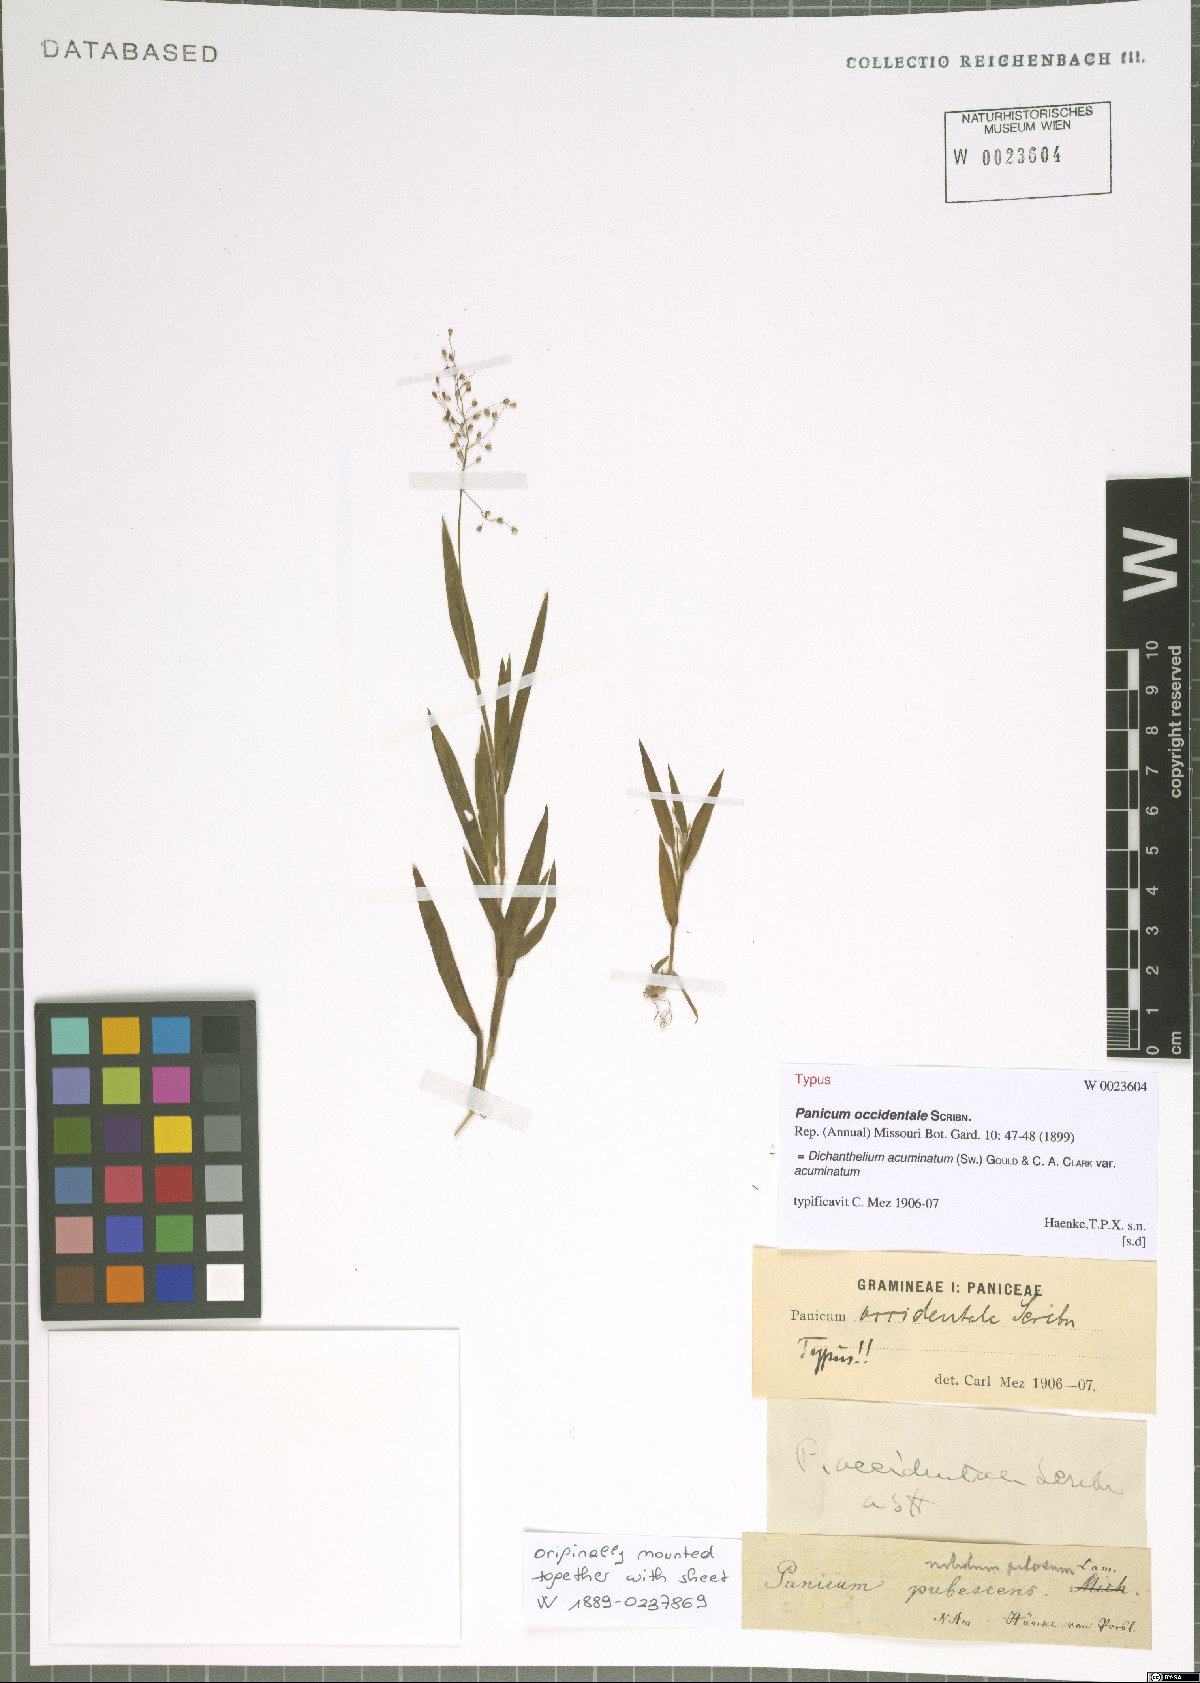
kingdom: Plantae
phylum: Tracheophyta
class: Liliopsida
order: Poales
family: Poaceae
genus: Dichanthelium
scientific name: Dichanthelium acuminatum
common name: Hairy panic grass
